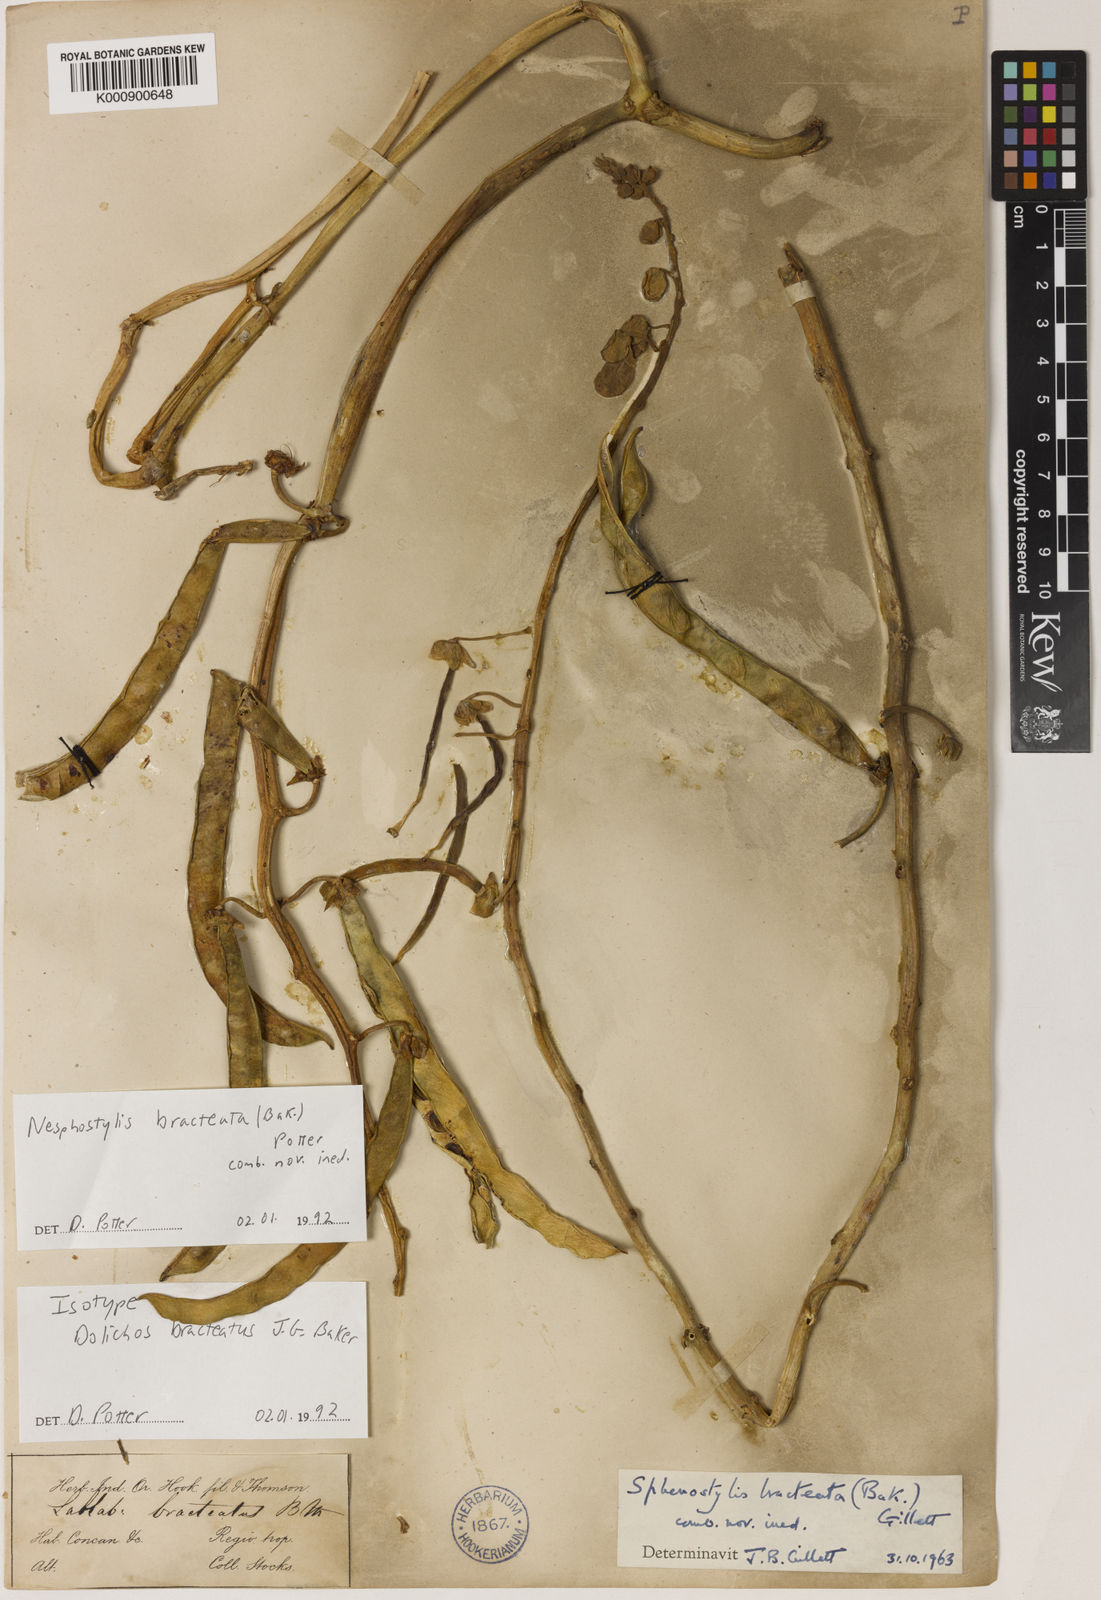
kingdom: Plantae
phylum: Tracheophyta
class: Magnoliopsida
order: Fabales
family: Fabaceae
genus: Lablab
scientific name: Lablab purpureus
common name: Lablab-bean
